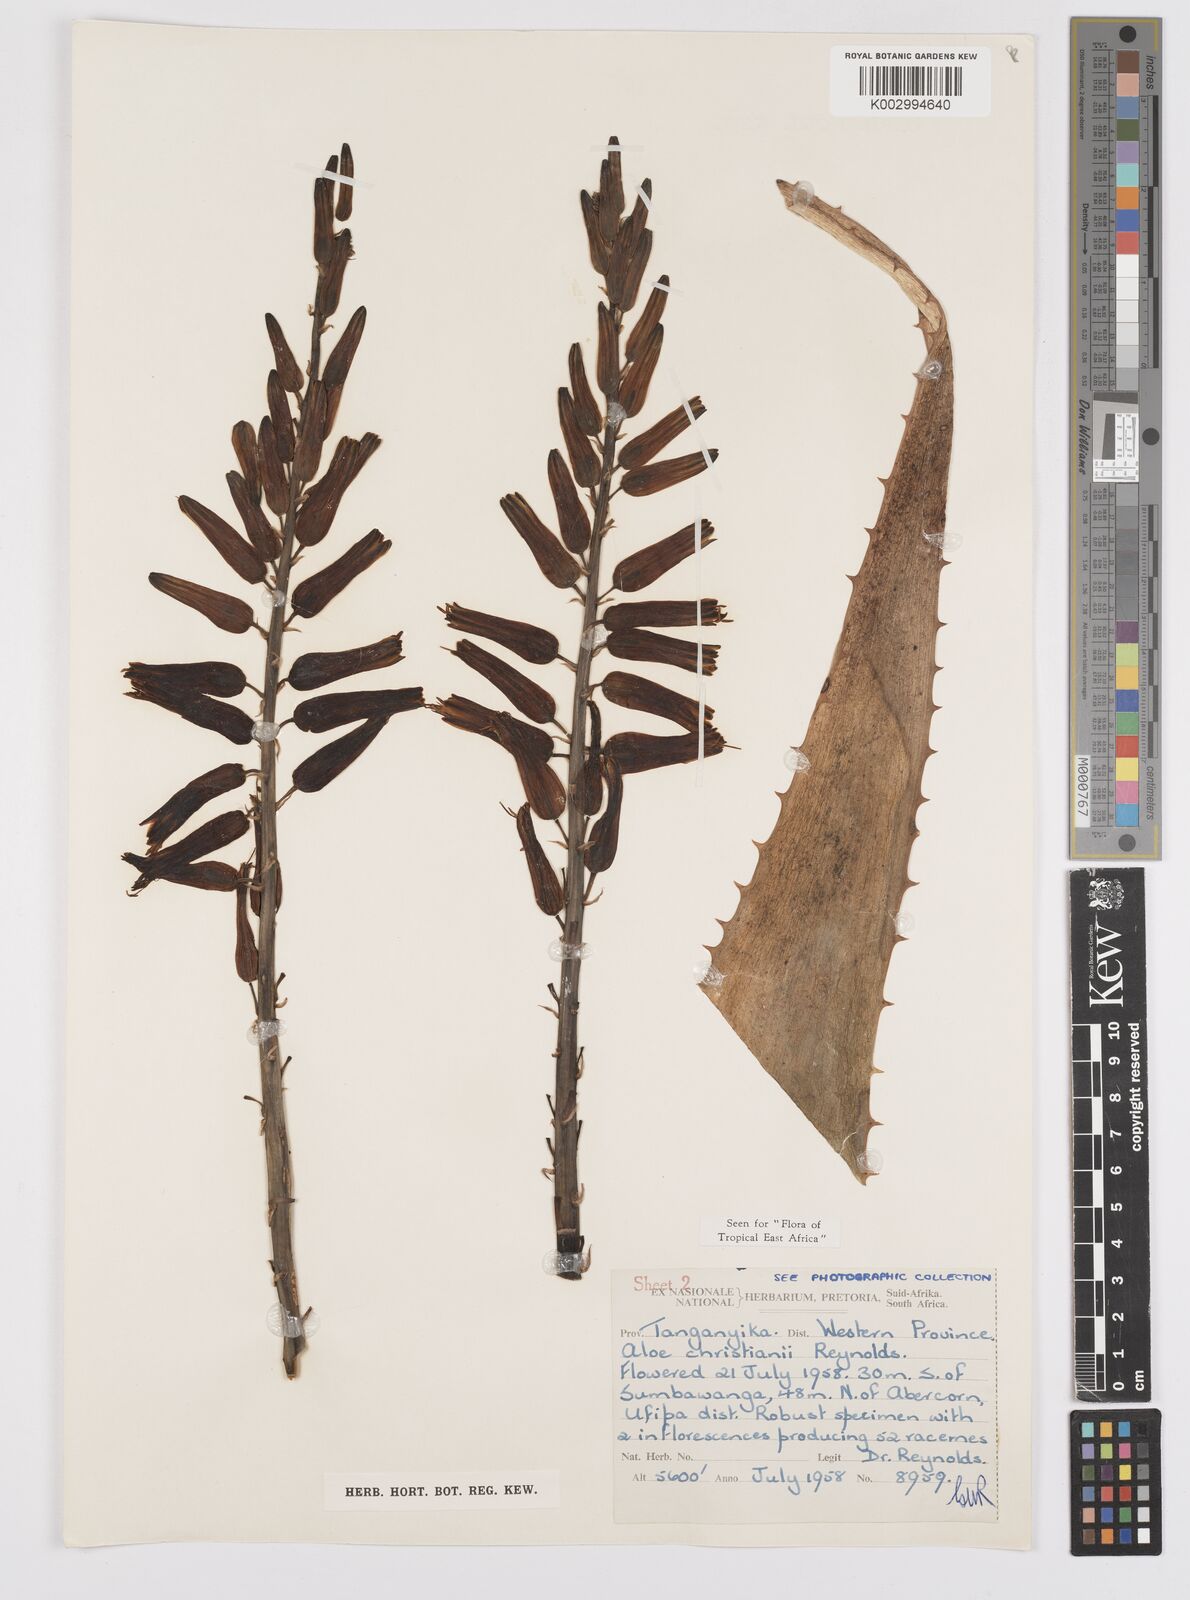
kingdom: Plantae
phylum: Tracheophyta
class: Liliopsida
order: Asparagales
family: Asphodelaceae
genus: Aloe
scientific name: Aloe christianii
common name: Basil christian's aloe
